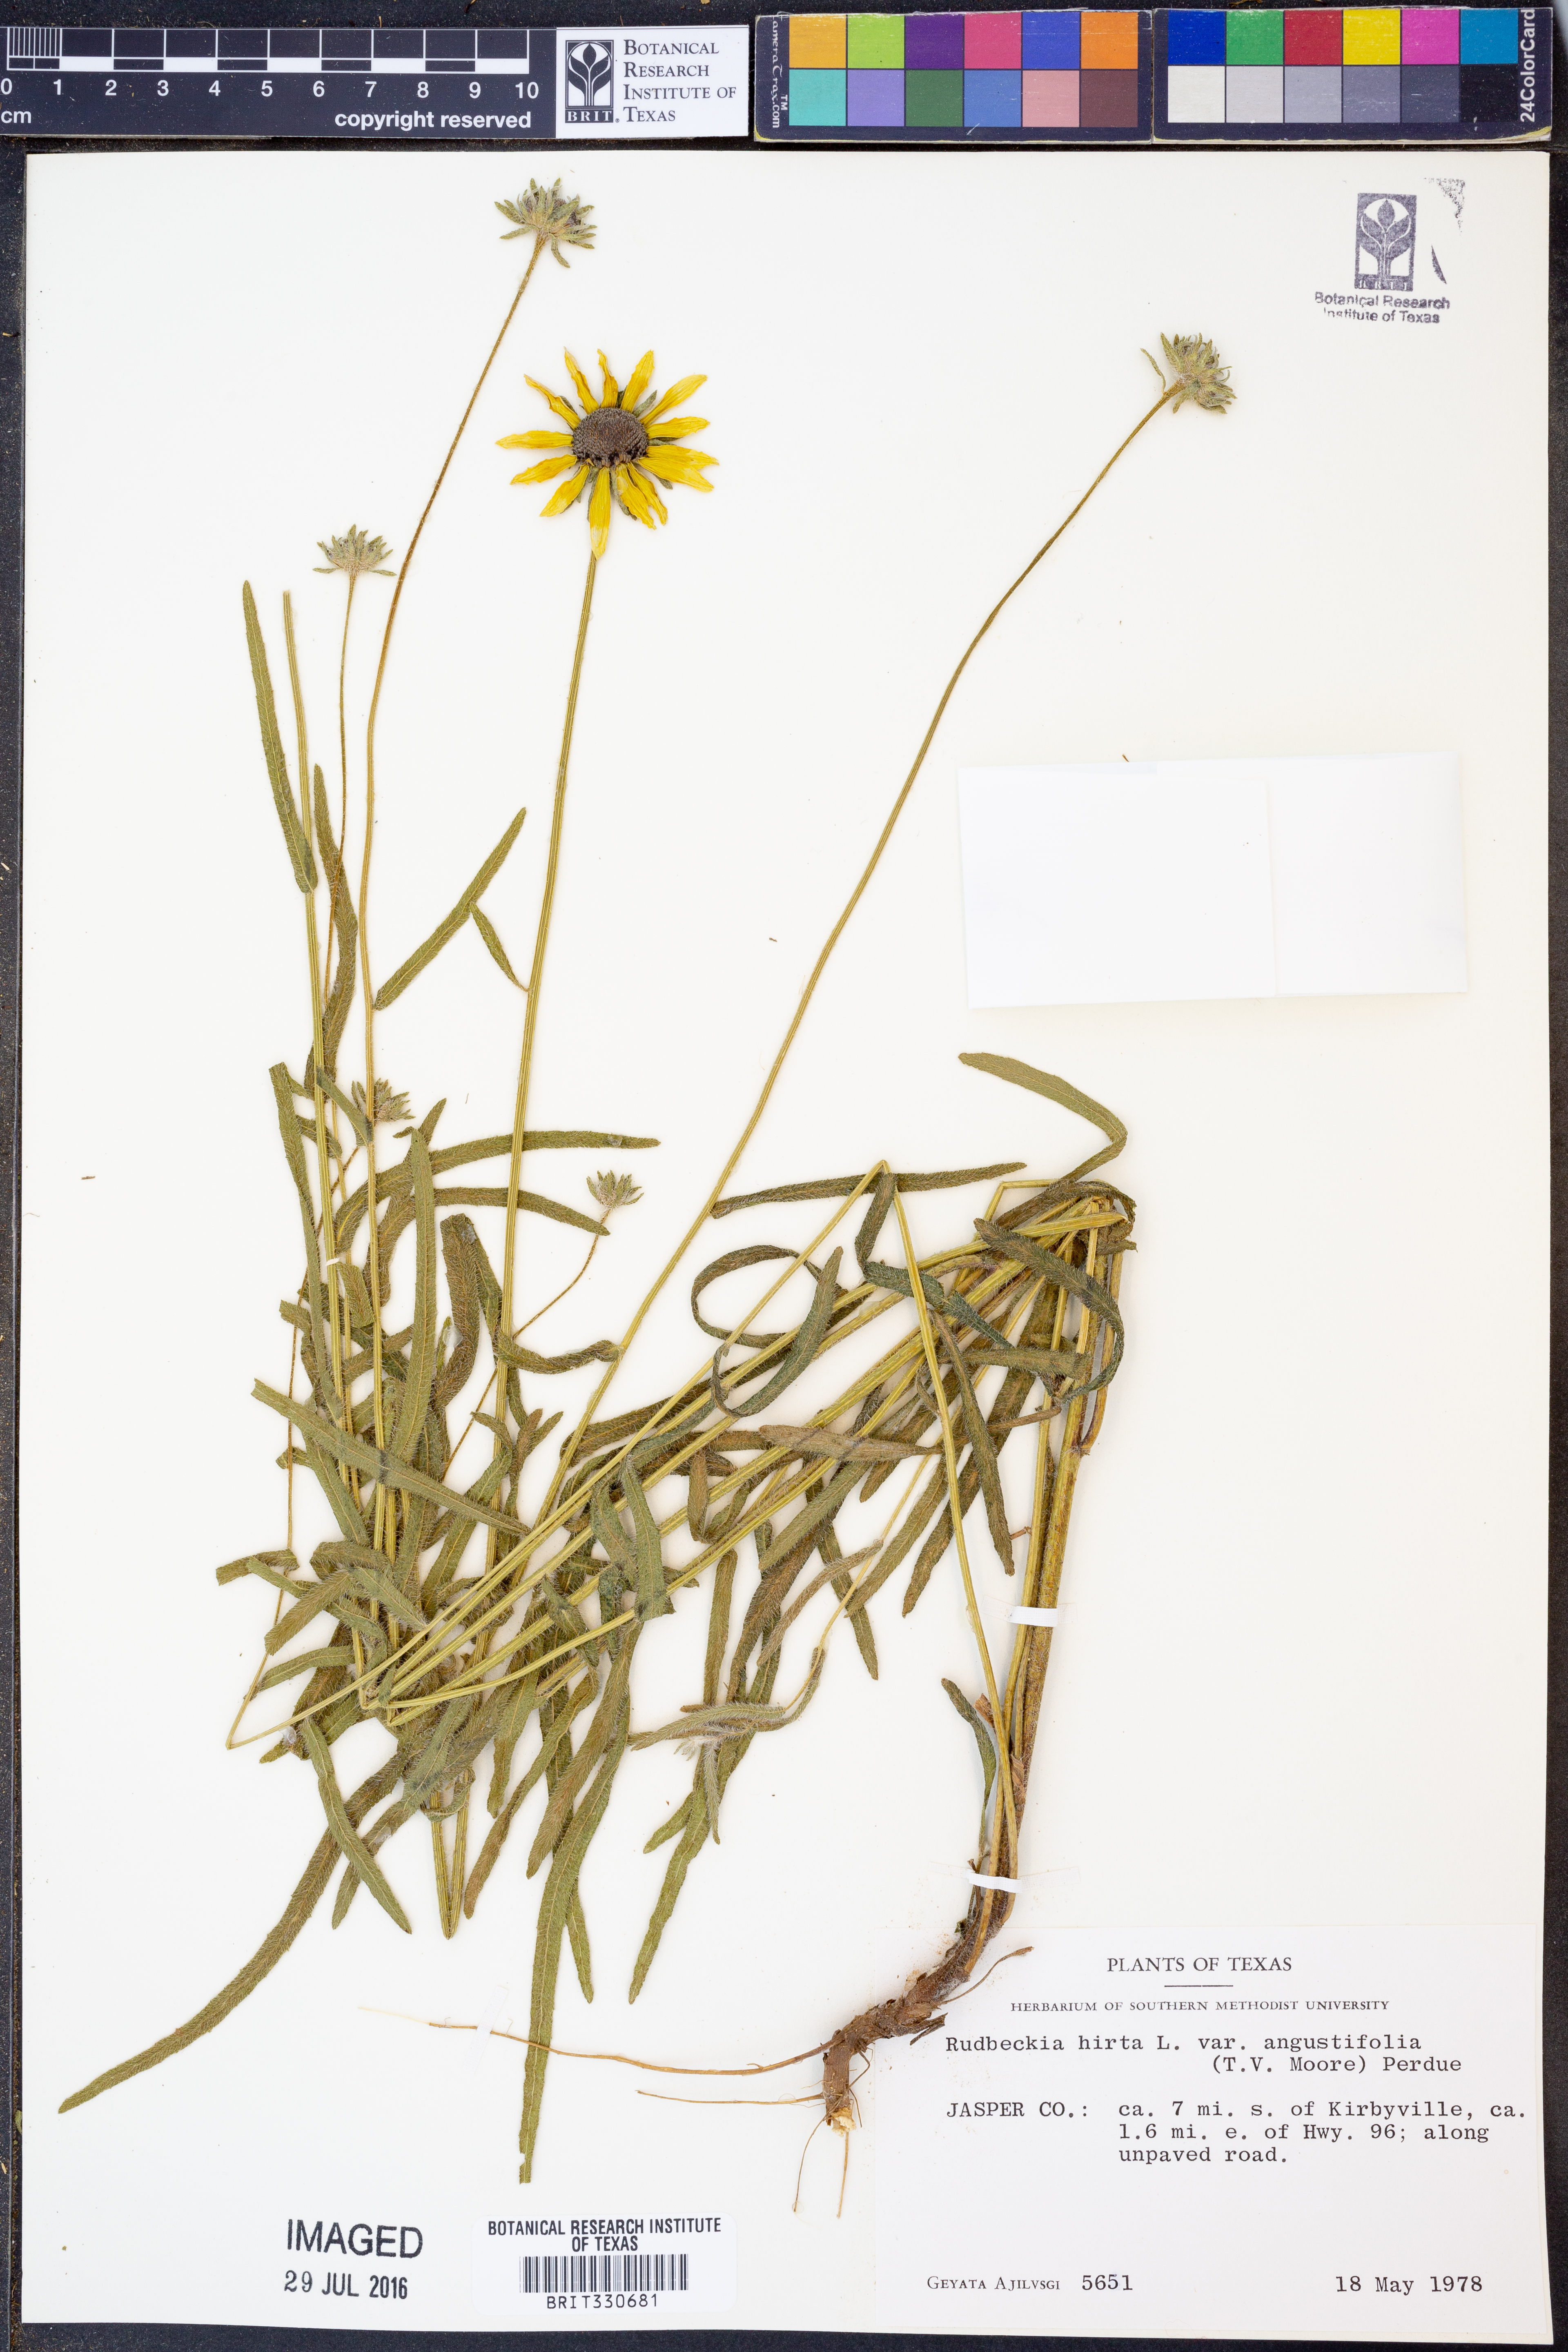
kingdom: Plantae
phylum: Tracheophyta
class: Magnoliopsida
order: Asterales
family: Asteraceae
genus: Rudbeckia
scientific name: Rudbeckia hirta
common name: Black-eyed-susan
